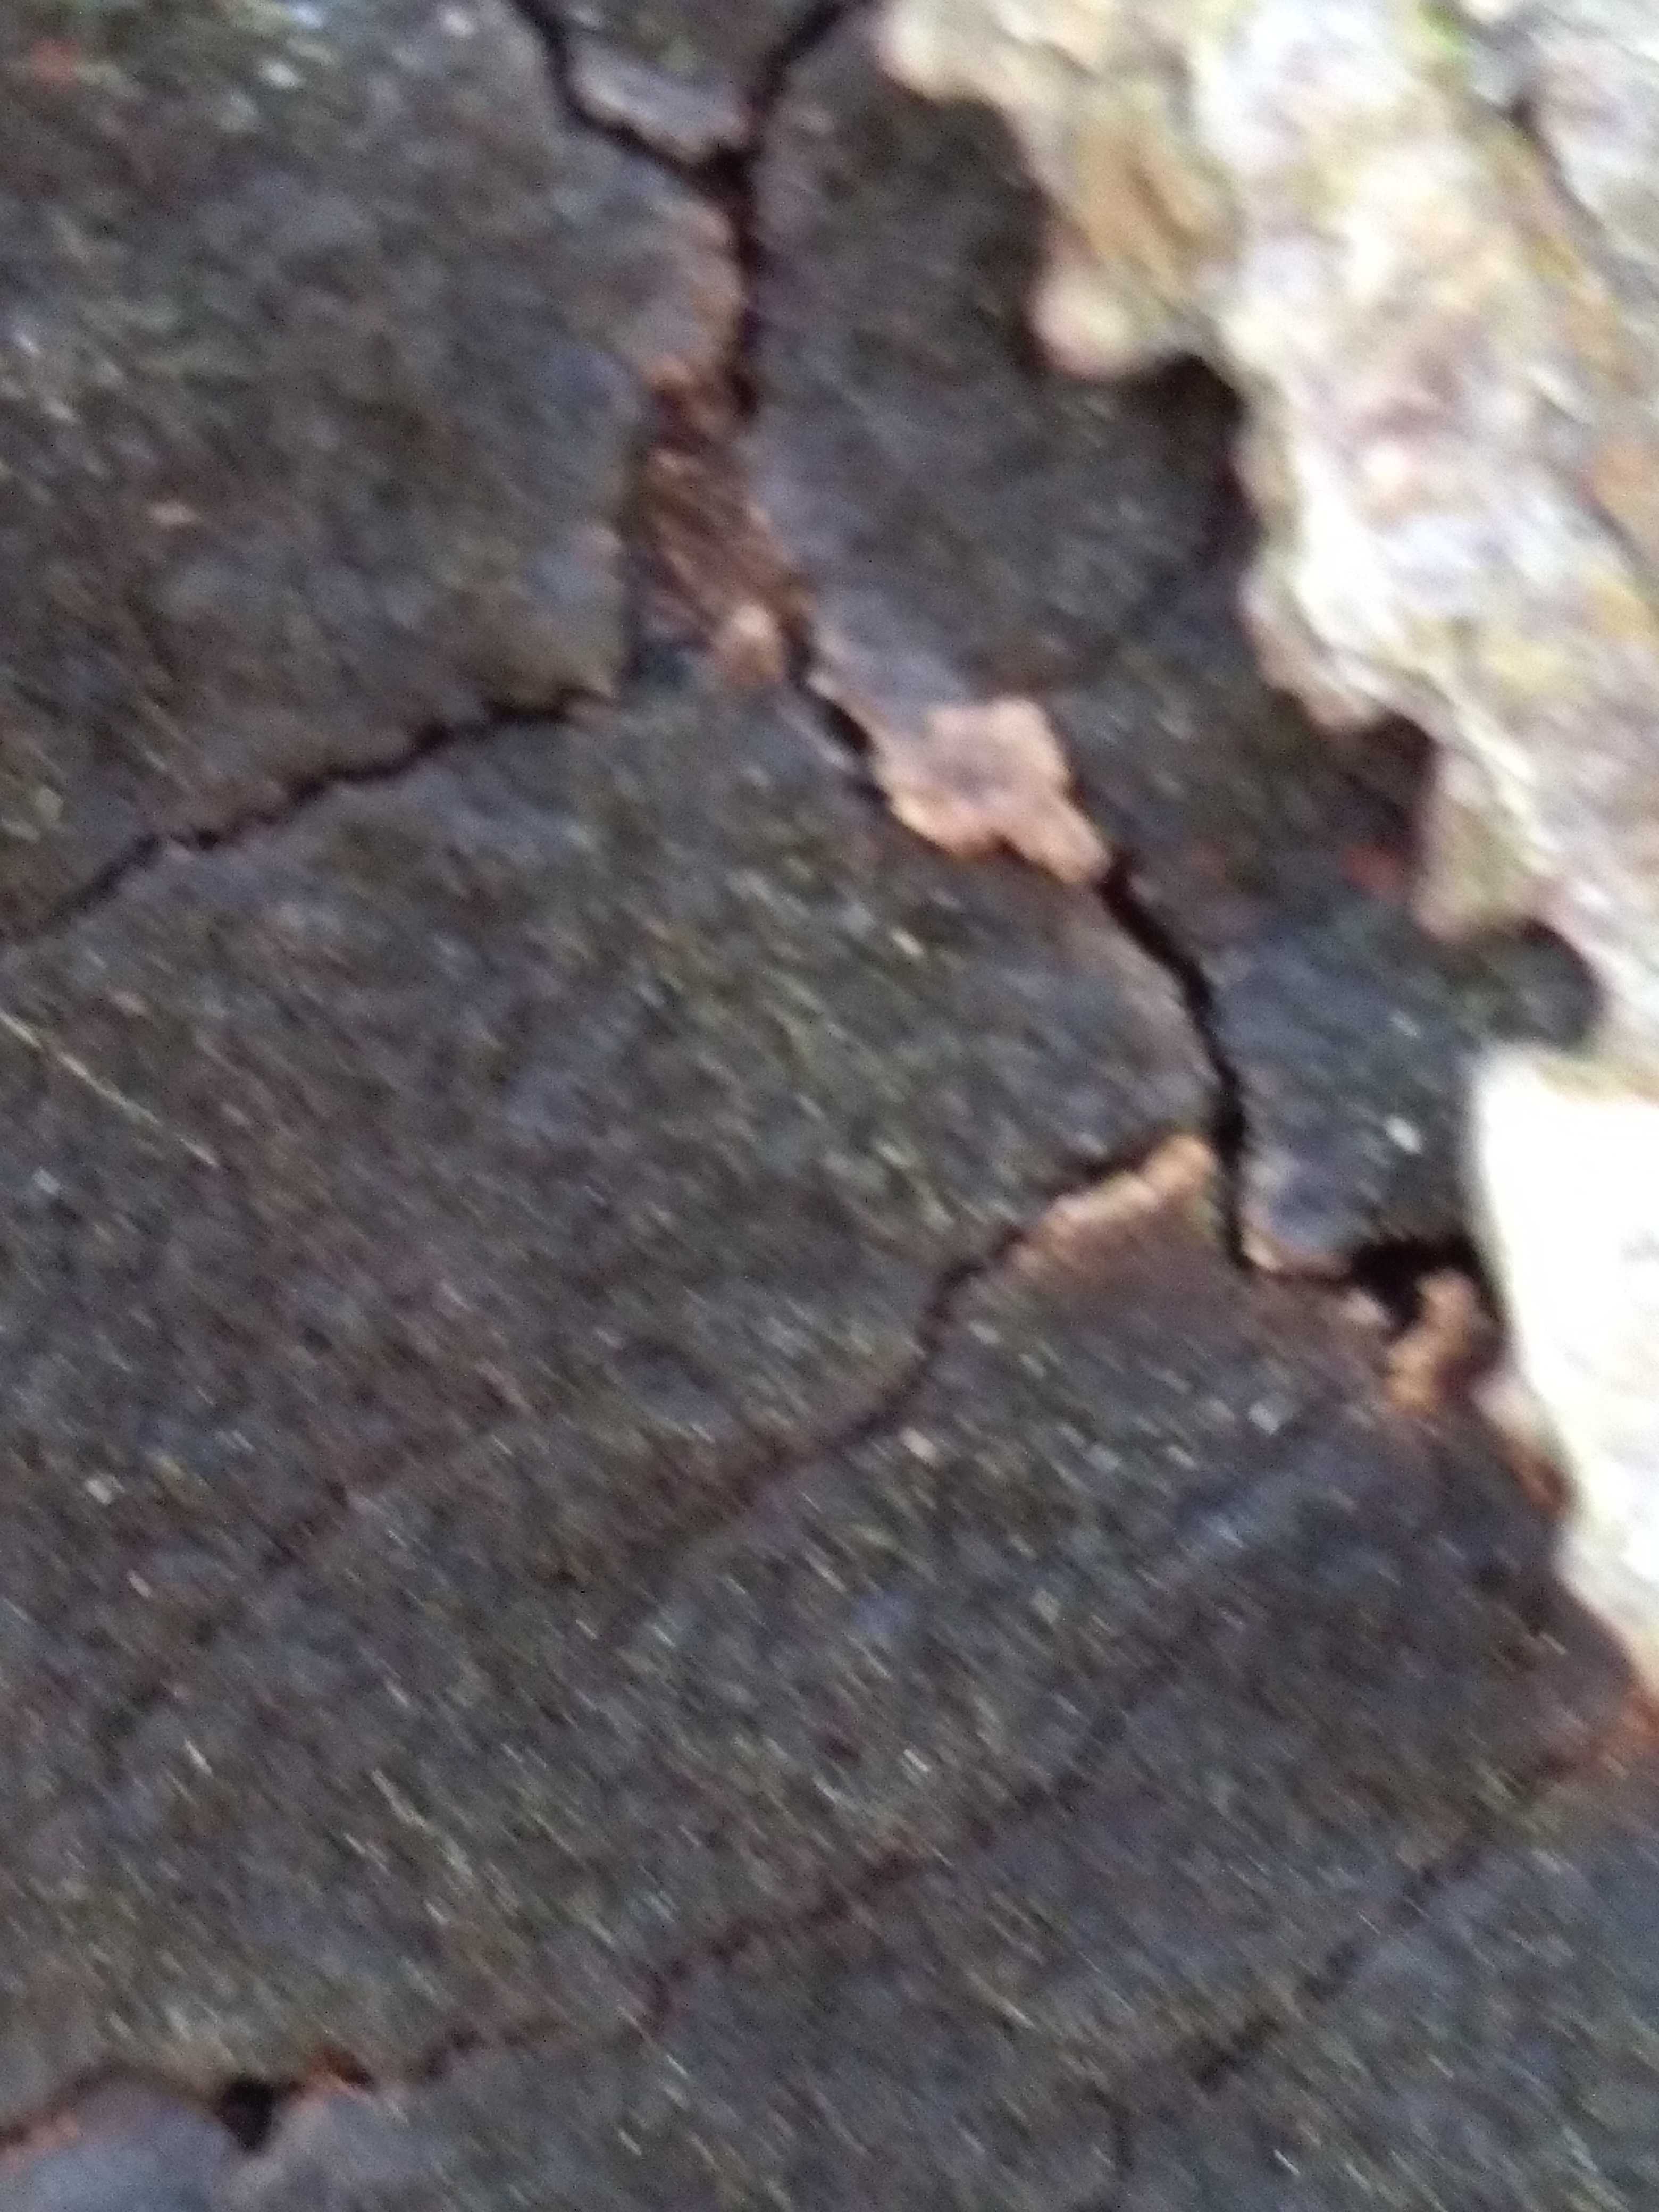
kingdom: Fungi
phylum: Ascomycota
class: Sordariomycetes
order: Xylariales
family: Diatrypaceae
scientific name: Diatrypaceae
